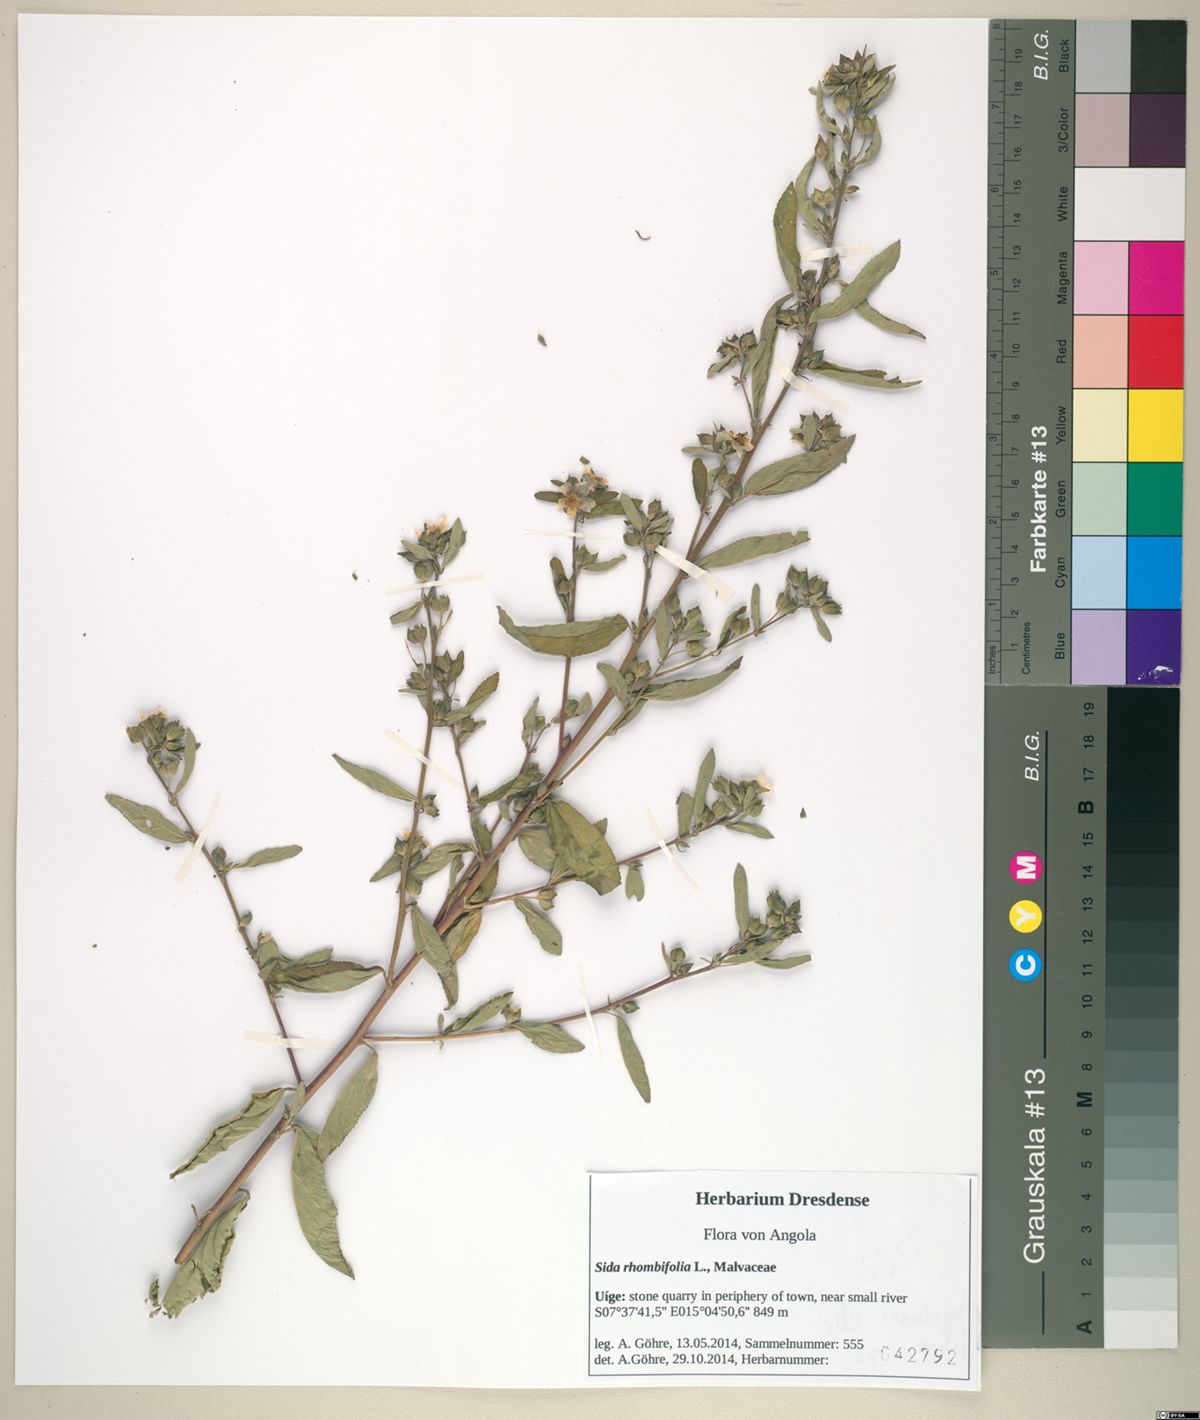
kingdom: Plantae
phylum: Tracheophyta
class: Magnoliopsida
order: Malvales
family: Malvaceae
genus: Sida
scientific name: Sida rhombifolia
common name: Queensland-hemp
